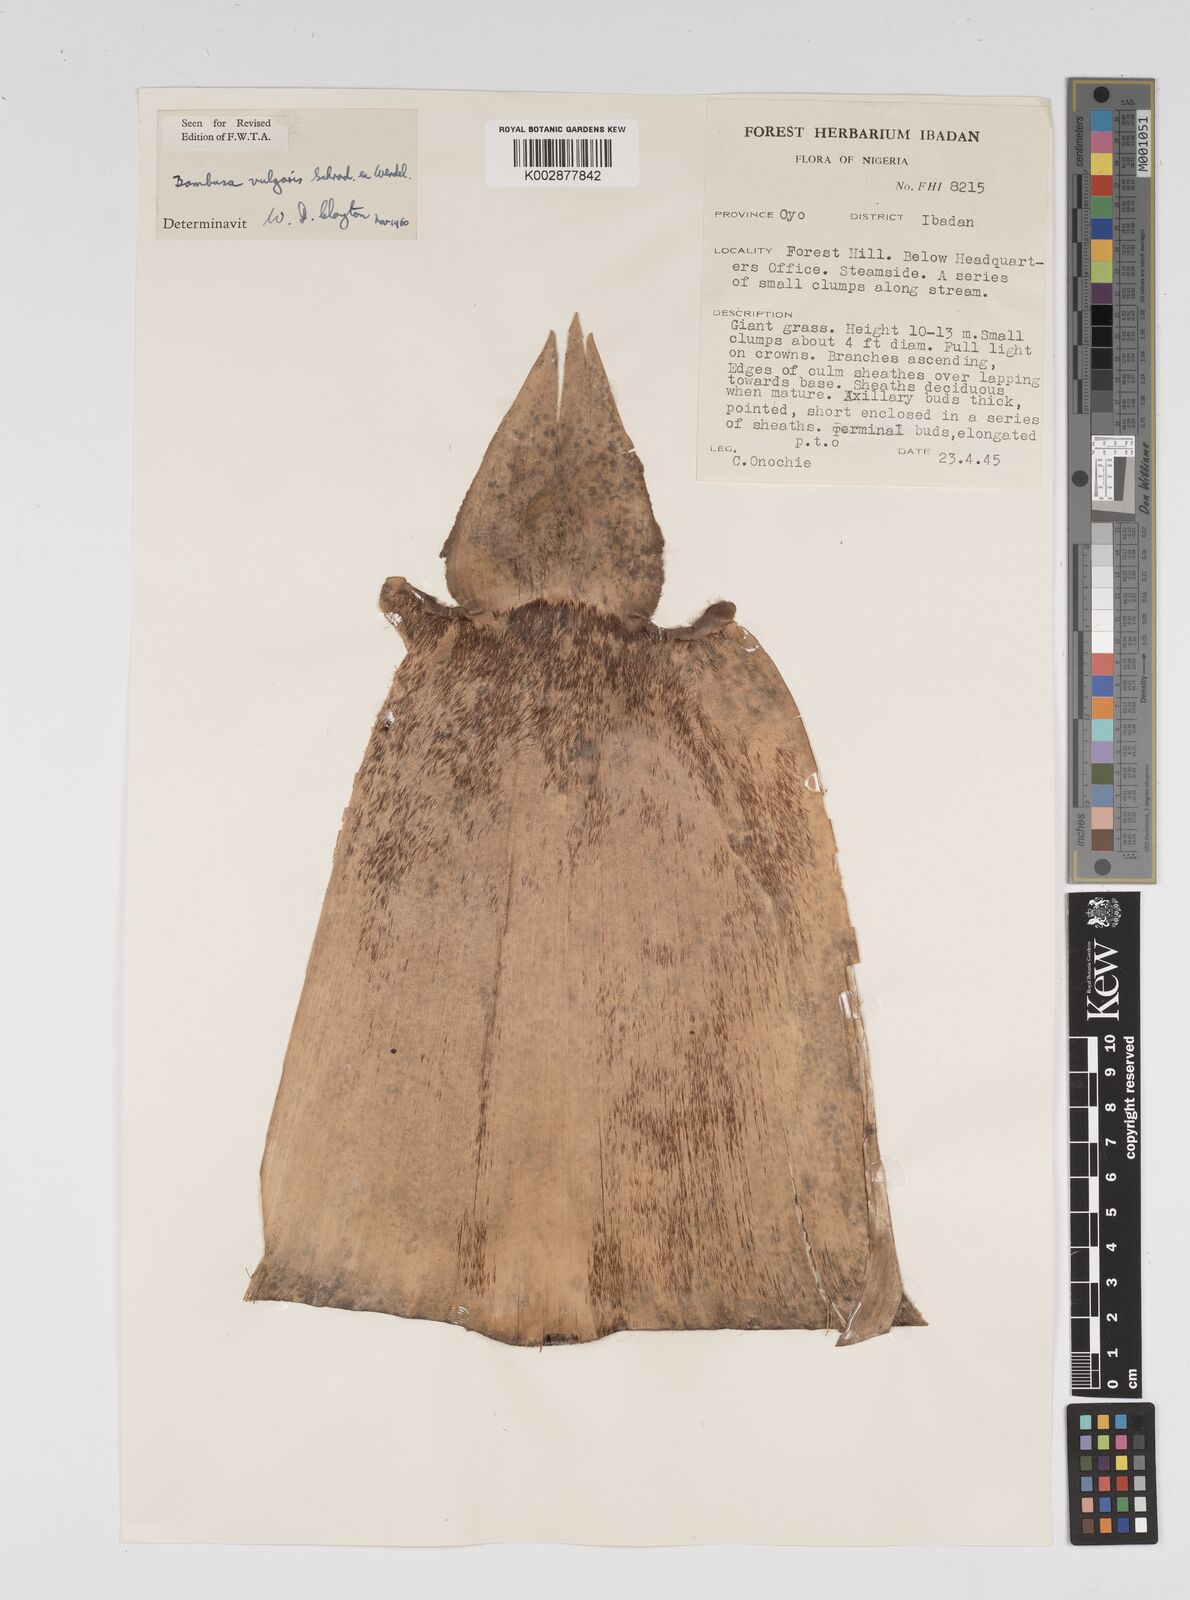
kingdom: Plantae
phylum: Tracheophyta
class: Liliopsida
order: Poales
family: Poaceae
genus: Bambusa
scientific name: Bambusa vulgaris
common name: Common bamboo
